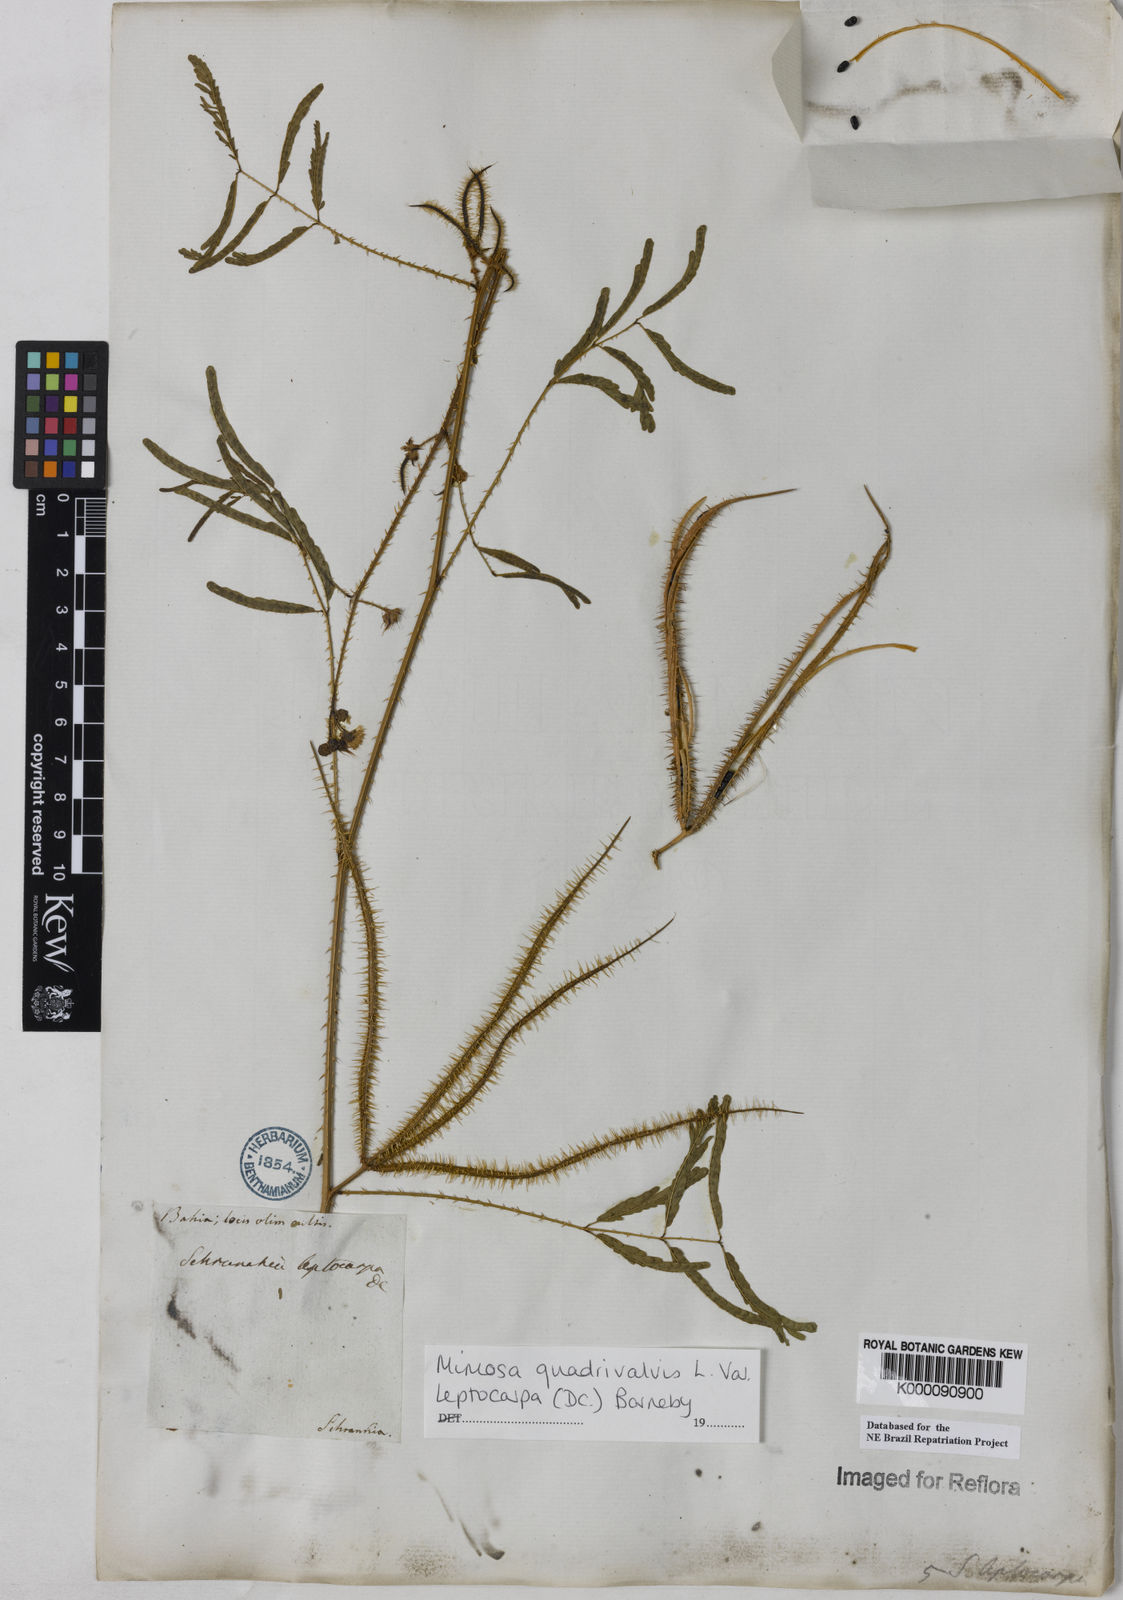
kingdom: Plantae
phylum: Tracheophyta
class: Magnoliopsida
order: Fabales
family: Fabaceae
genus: Mimosa
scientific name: Mimosa candollei
